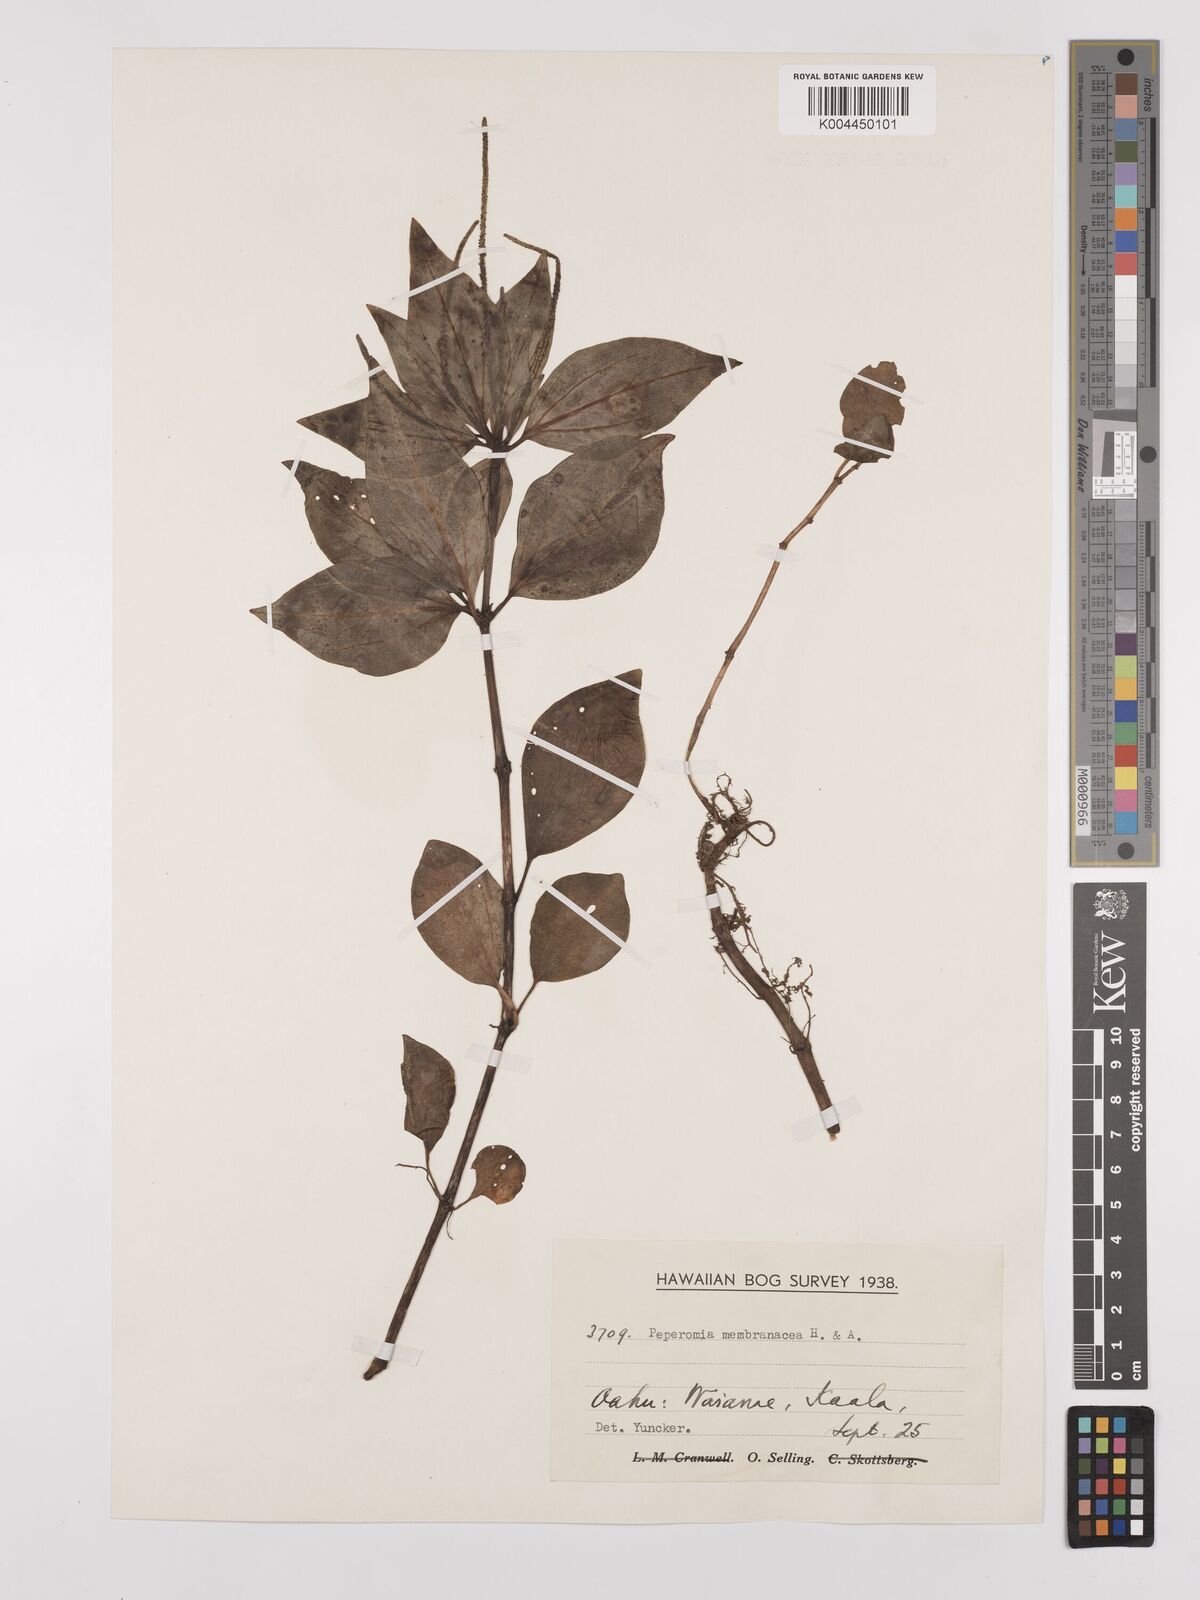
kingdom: Plantae
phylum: Tracheophyta
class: Magnoliopsida
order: Piperales
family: Piperaceae
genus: Peperomia
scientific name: Peperomia membranacea
